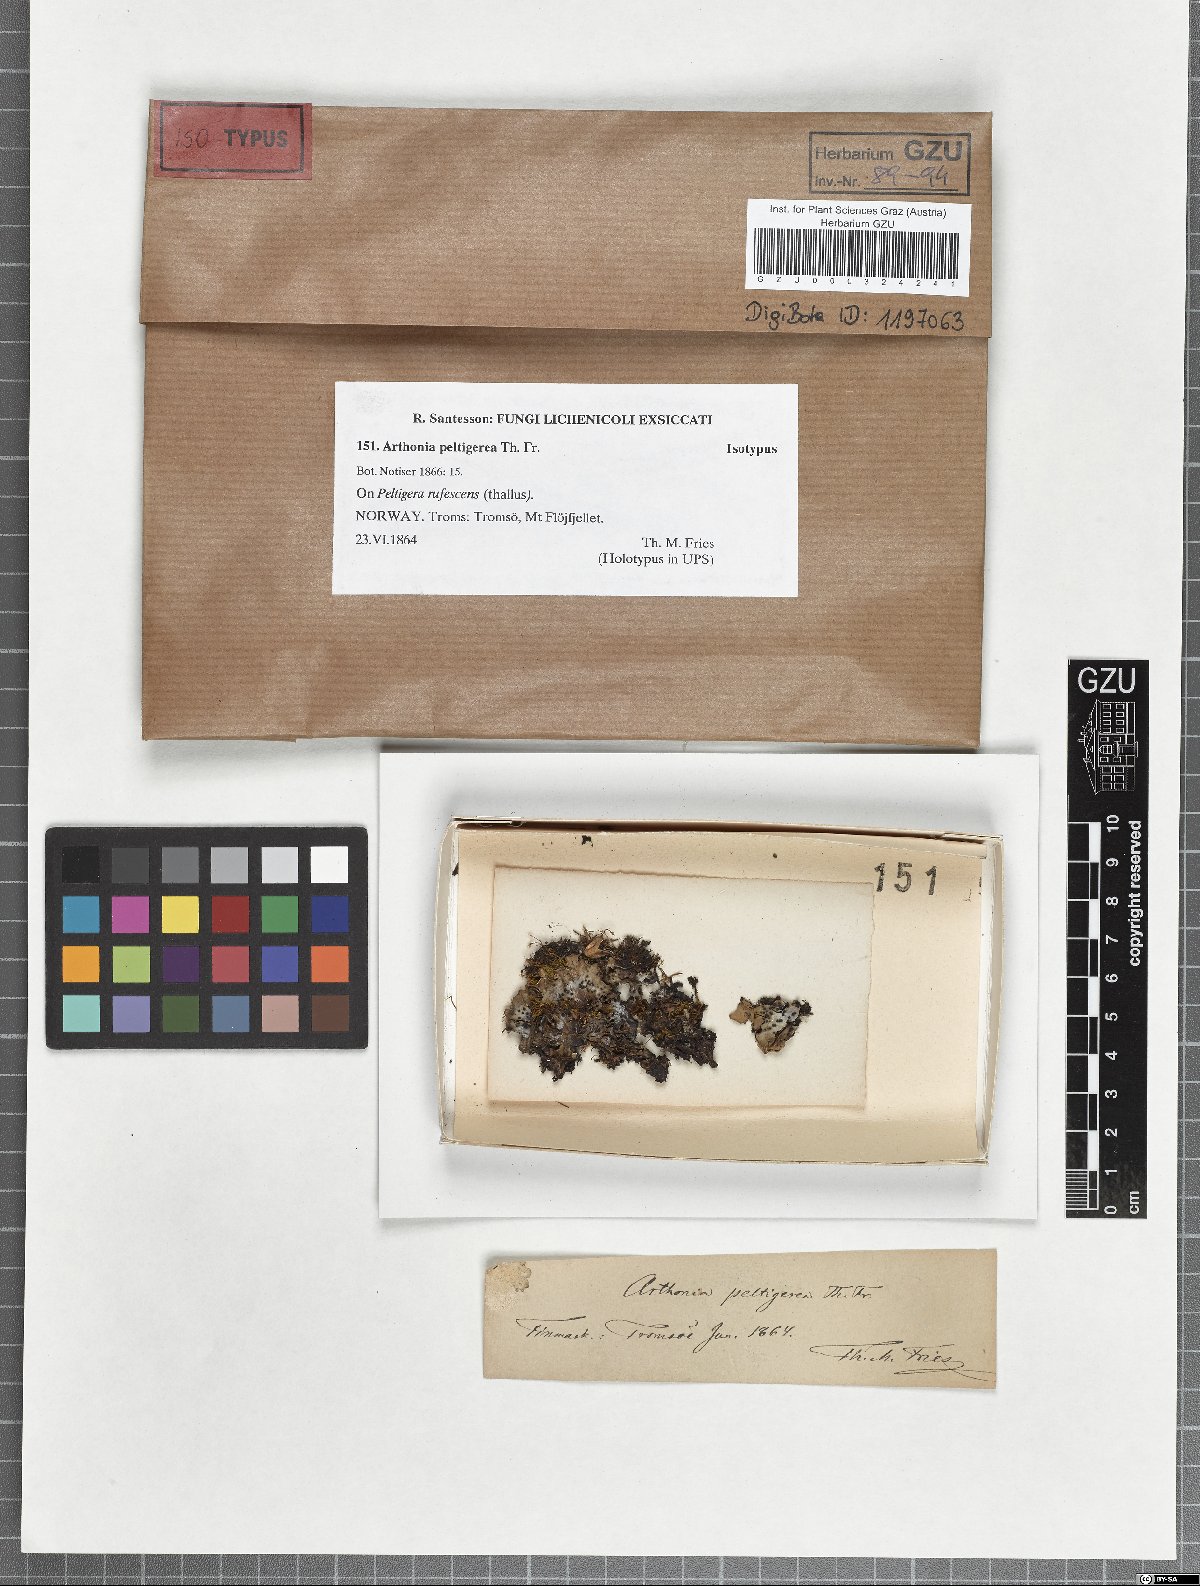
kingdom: Fungi
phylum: Ascomycota
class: Arthoniomycetes
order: Arthoniales
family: Arthoniaceae
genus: Arthonia
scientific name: Arthonia peltigerea
